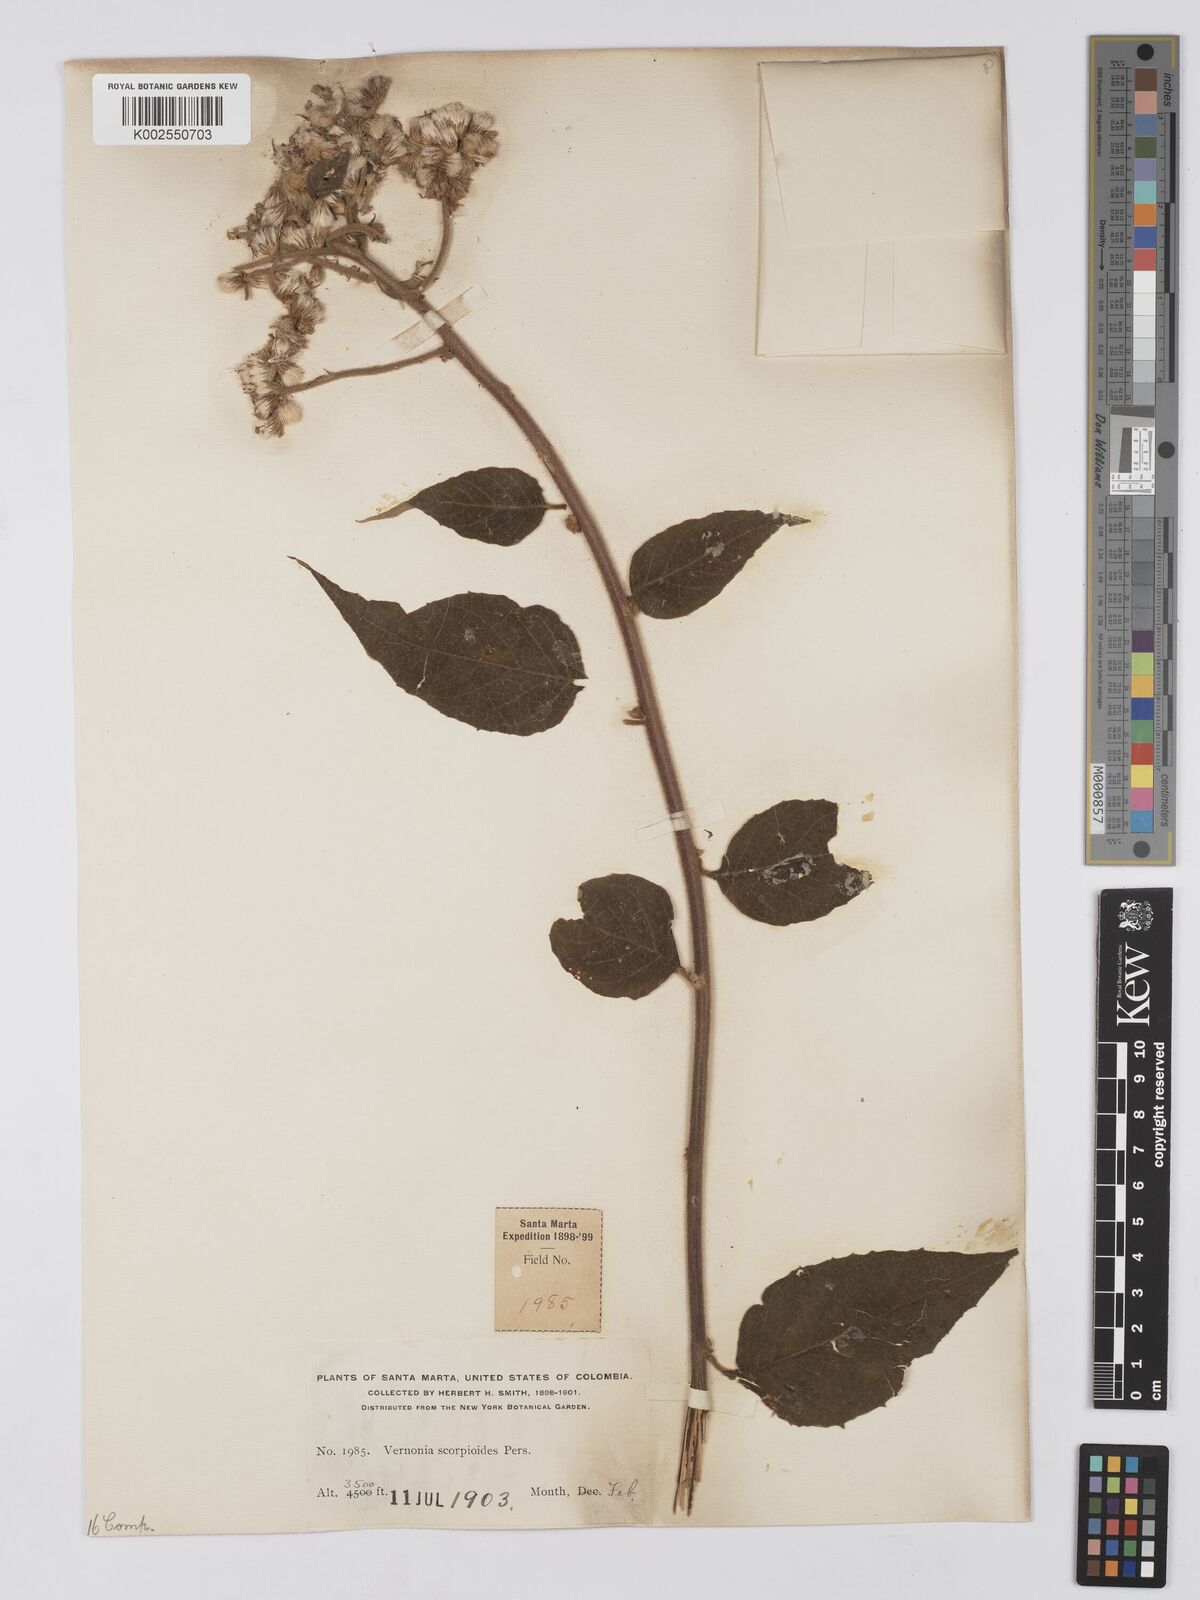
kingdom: Plantae
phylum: Tracheophyta
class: Magnoliopsida
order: Asterales
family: Asteraceae
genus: Cyrtocymura
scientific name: Cyrtocymura scorpioides
